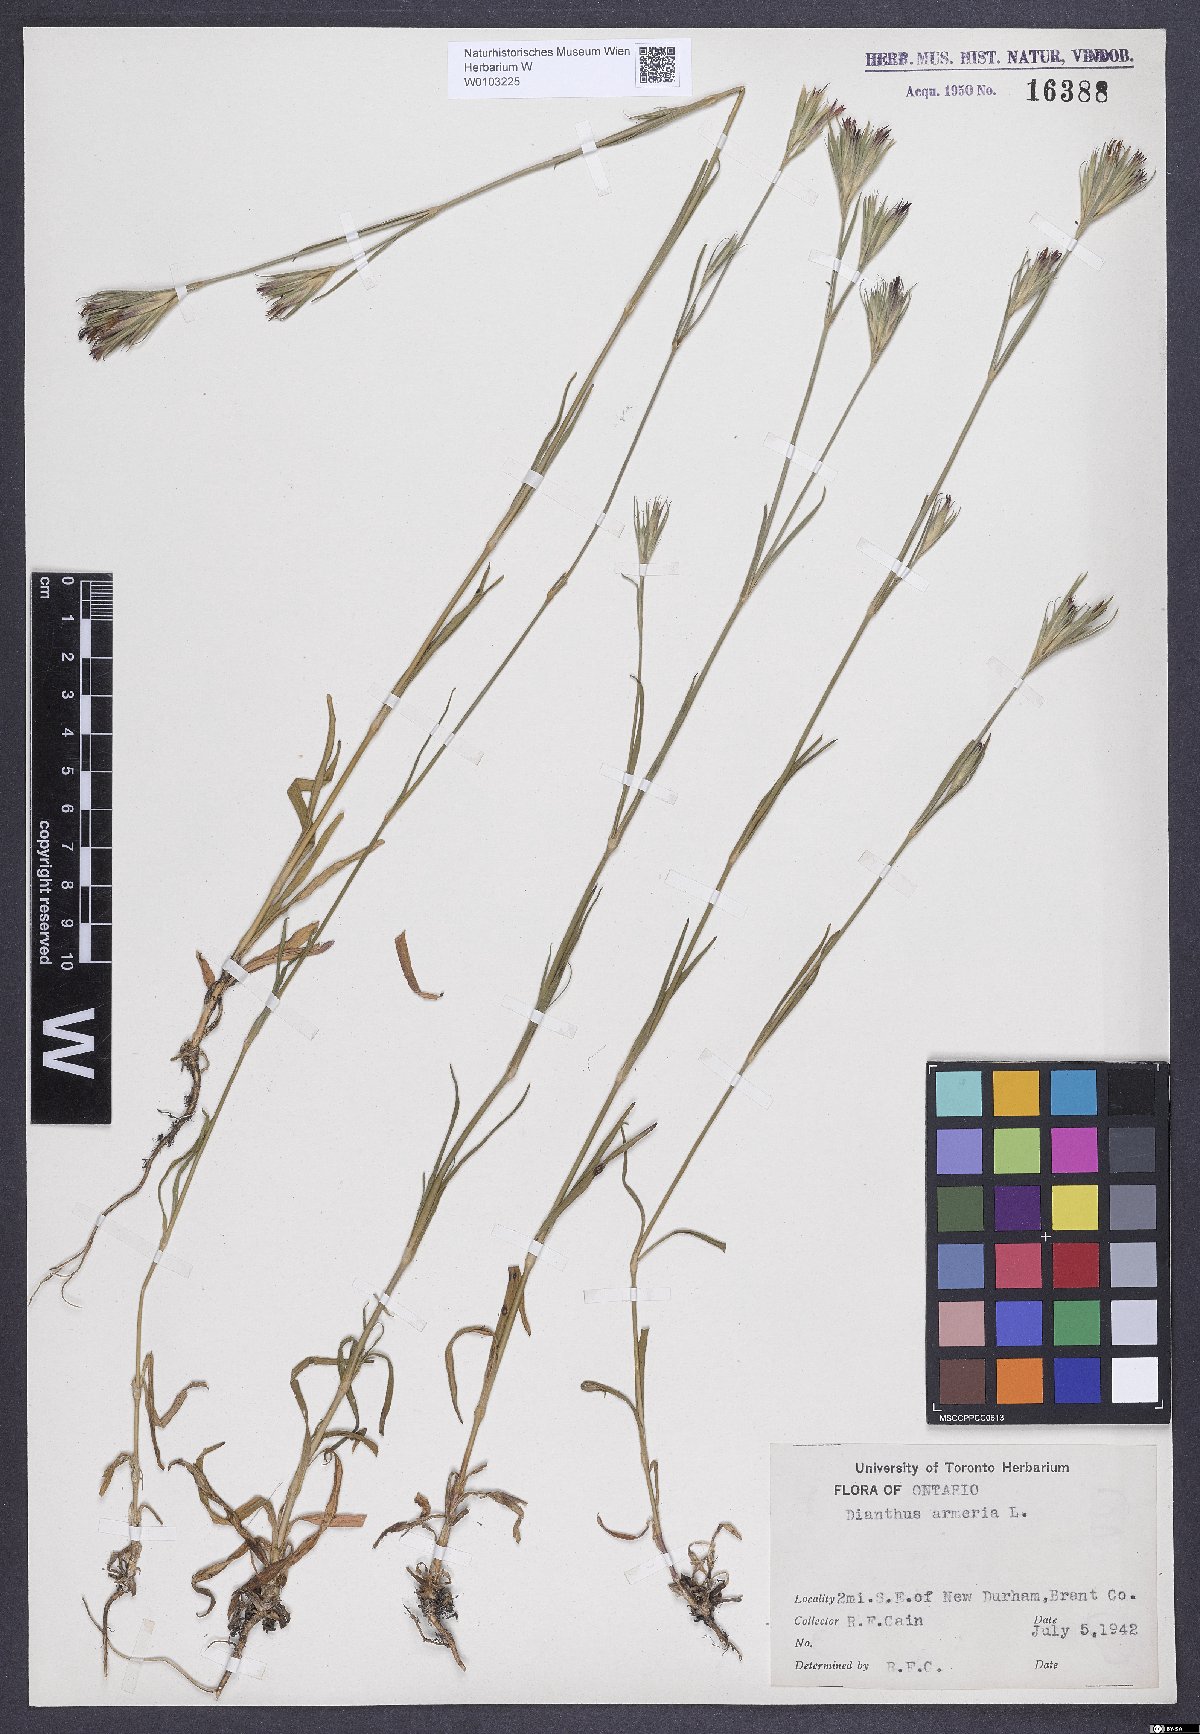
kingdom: Plantae
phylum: Tracheophyta
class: Magnoliopsida
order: Caryophyllales
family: Caryophyllaceae
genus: Dianthus
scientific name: Dianthus armeria
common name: Deptford pink
